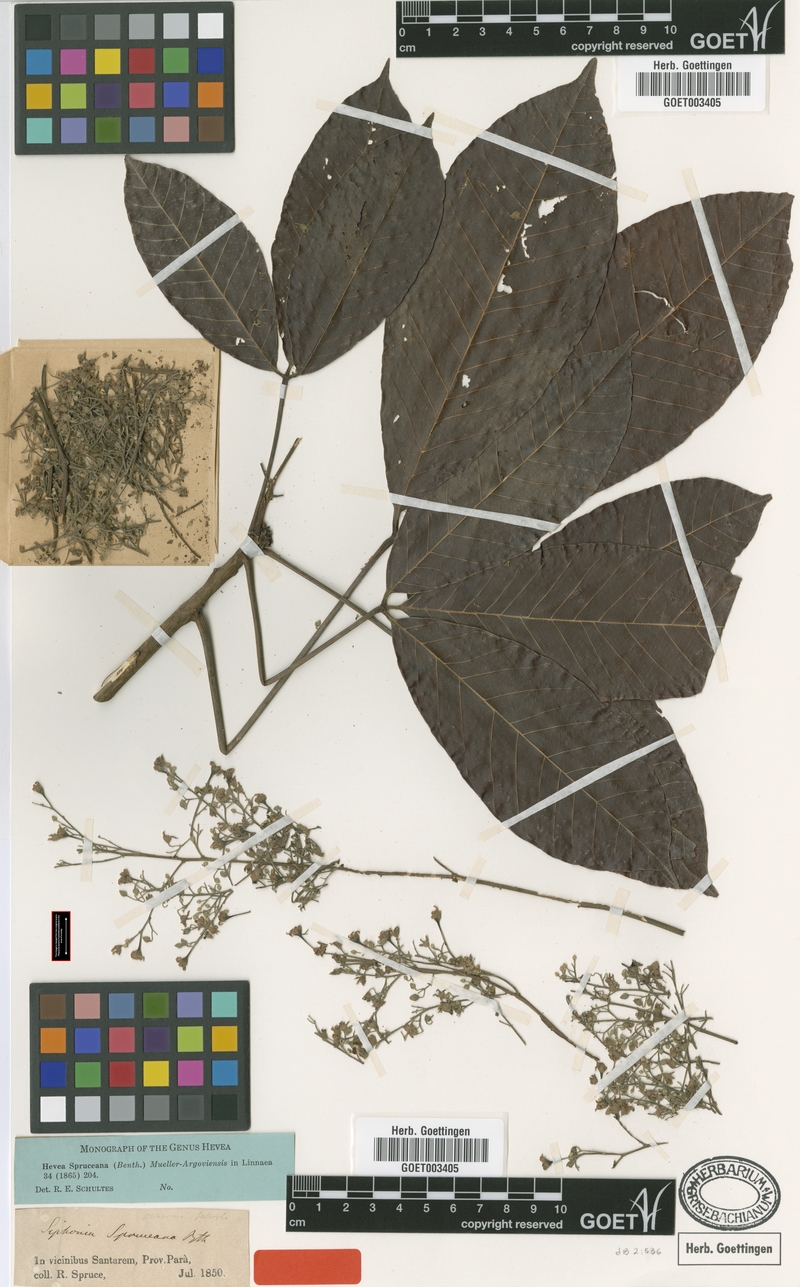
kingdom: Plantae
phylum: Tracheophyta
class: Magnoliopsida
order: Malpighiales
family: Euphorbiaceae
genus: Hevea
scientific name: Hevea spruceana
